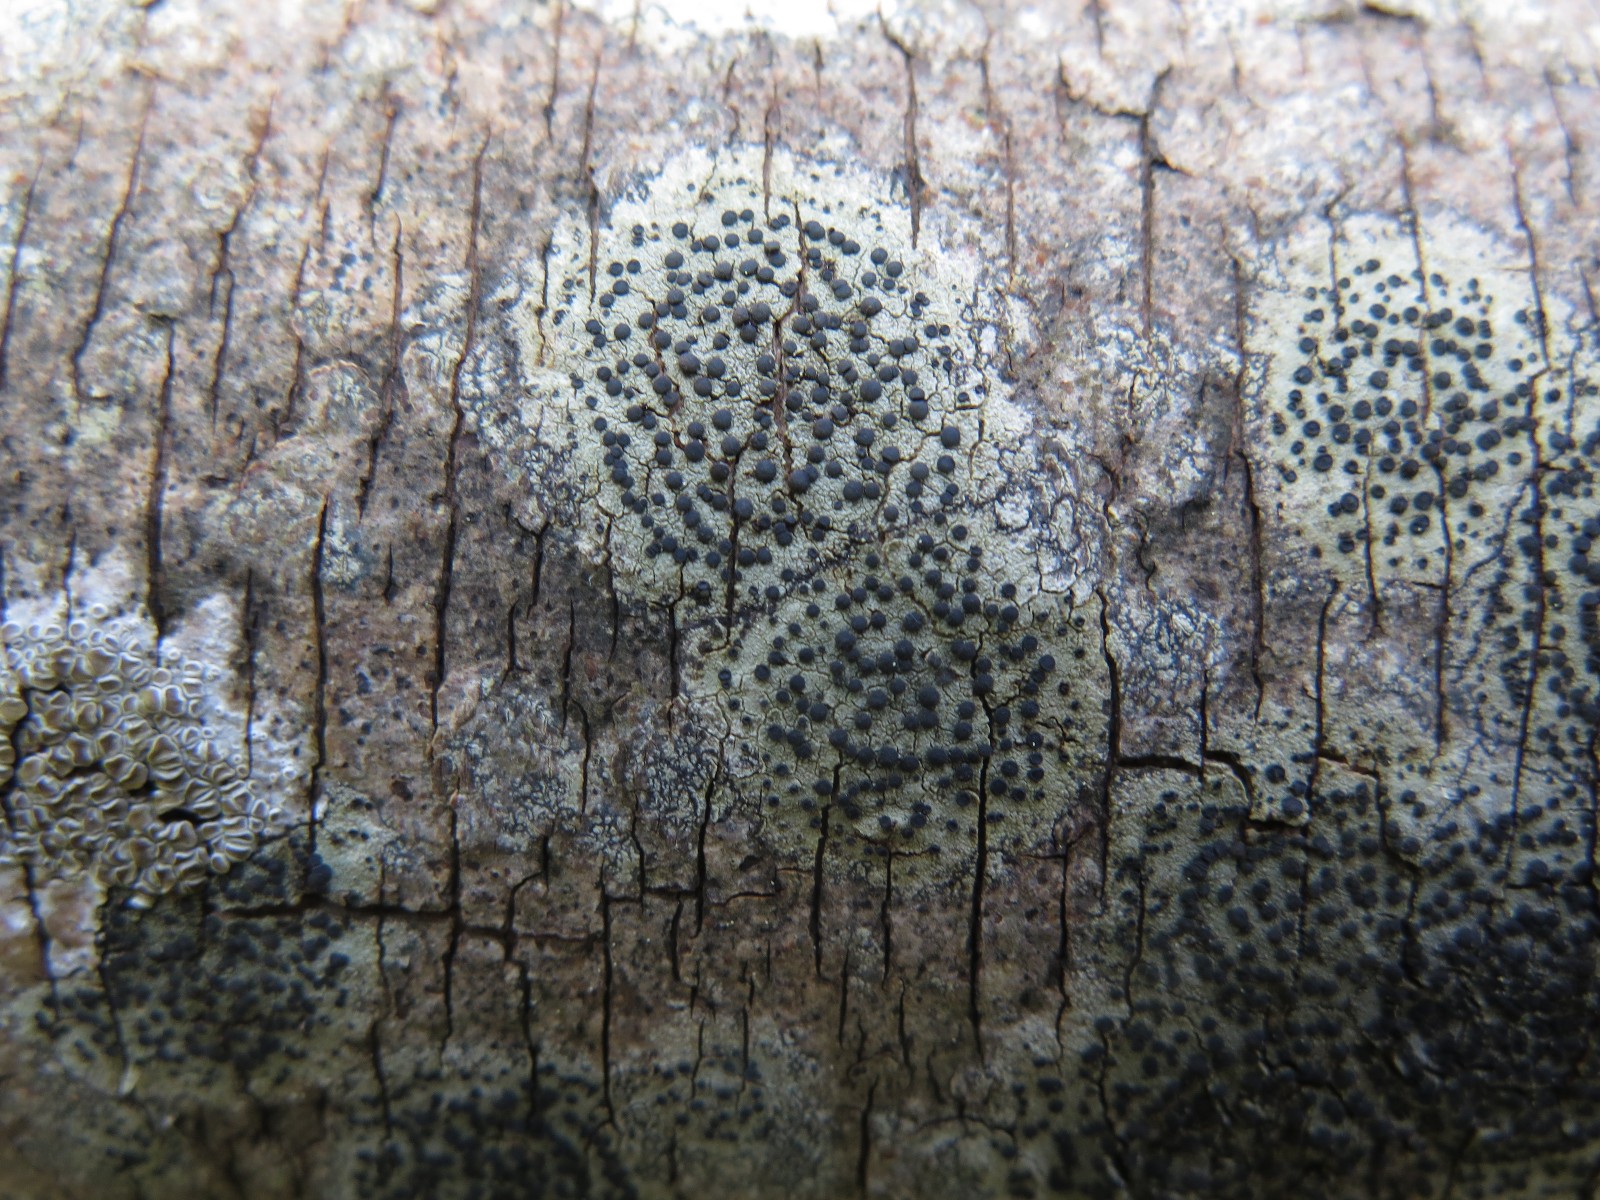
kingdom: Fungi
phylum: Ascomycota
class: Lecanoromycetes
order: Lecanorales
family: Lecanoraceae
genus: Lecidella
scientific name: Lecidella elaeochroma
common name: grågrøn skivelav
